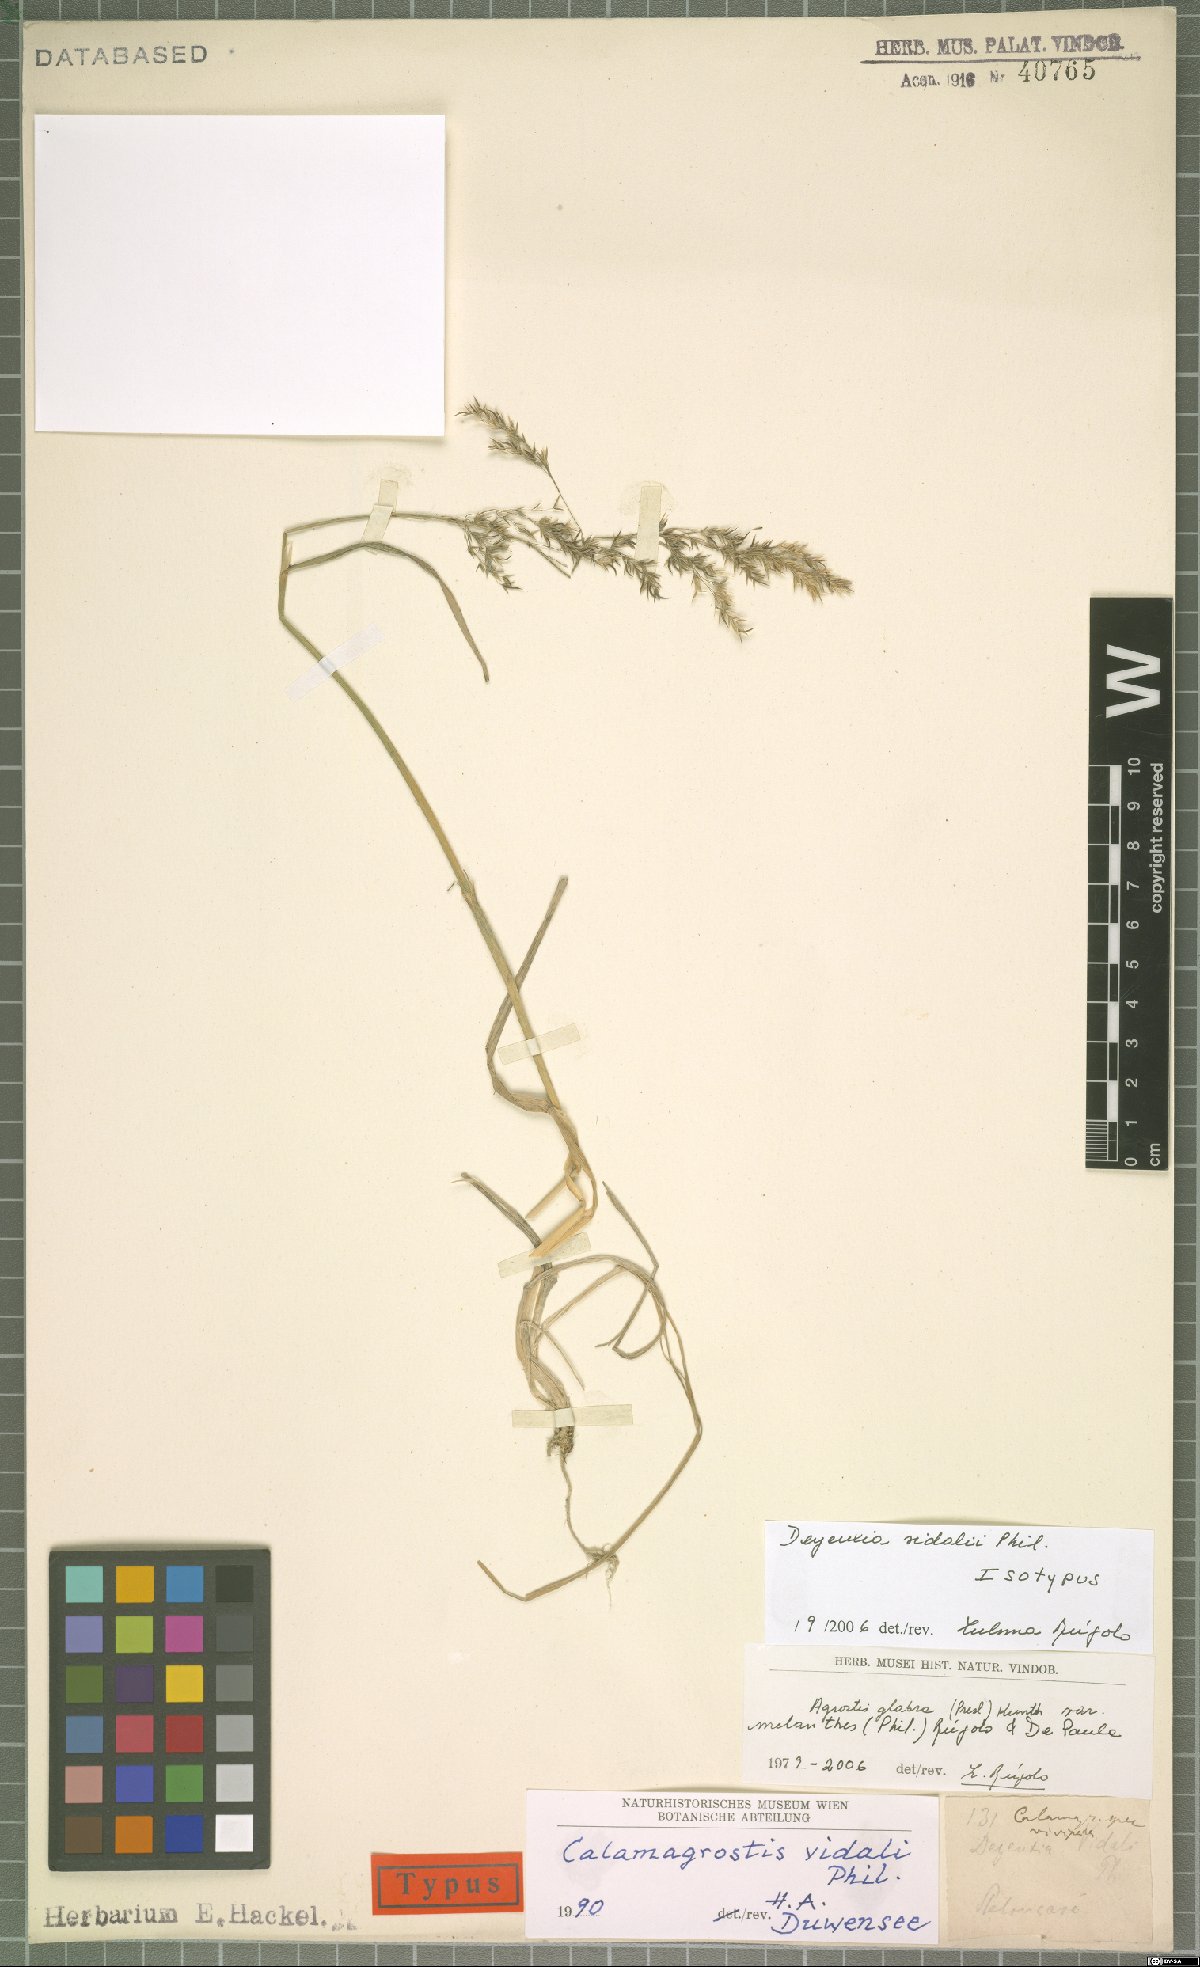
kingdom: Plantae
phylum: Tracheophyta
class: Liliopsida
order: Poales
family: Poaceae
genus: Agrostis
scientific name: Agrostis glabra
